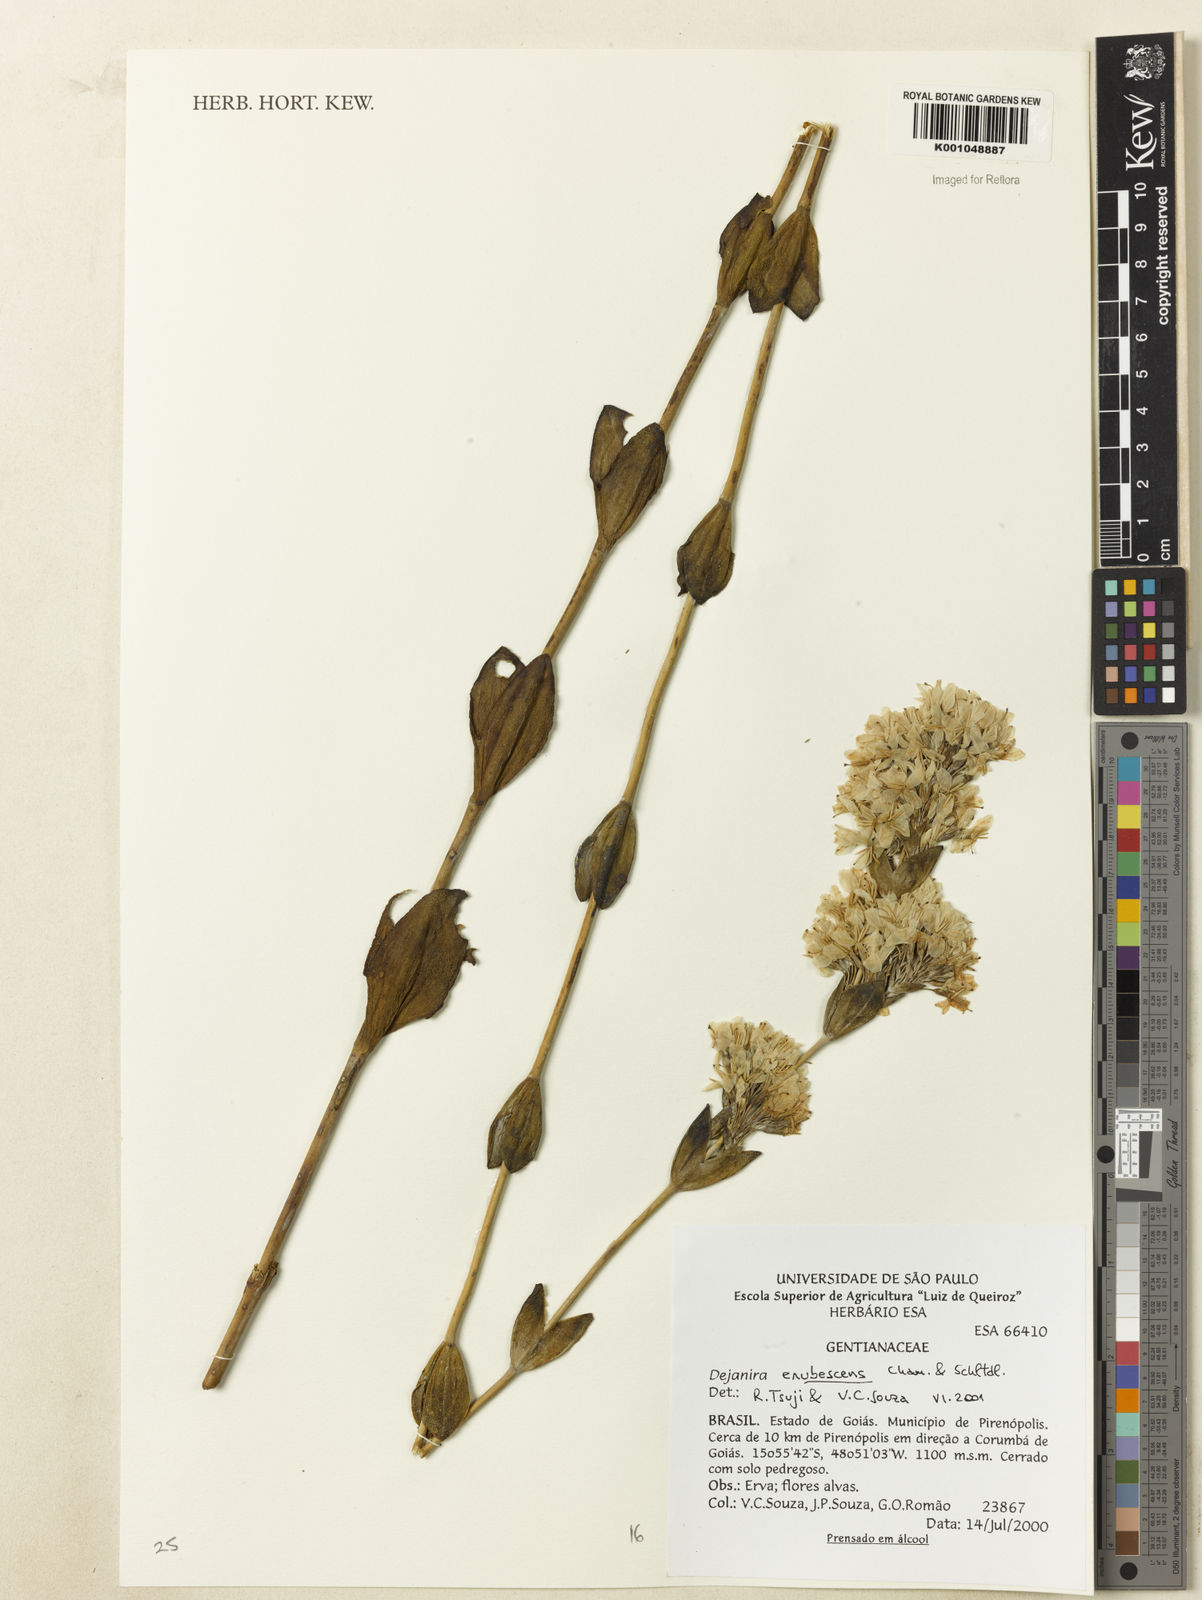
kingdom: Plantae
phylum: Tracheophyta
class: Magnoliopsida
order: Gentianales
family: Gentianaceae
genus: Deianira
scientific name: Deianira erubescens
